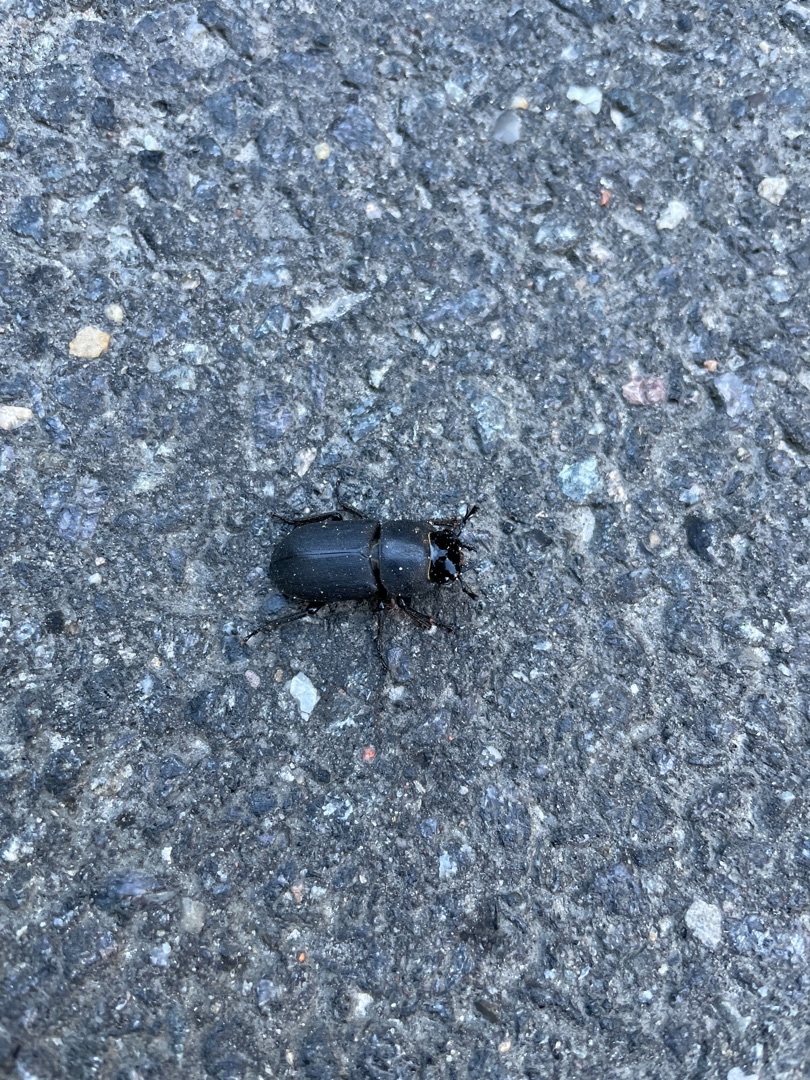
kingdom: Animalia
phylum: Arthropoda
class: Insecta
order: Coleoptera
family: Lucanidae
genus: Dorcus
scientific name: Dorcus parallelipipedus
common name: Bøghjort
